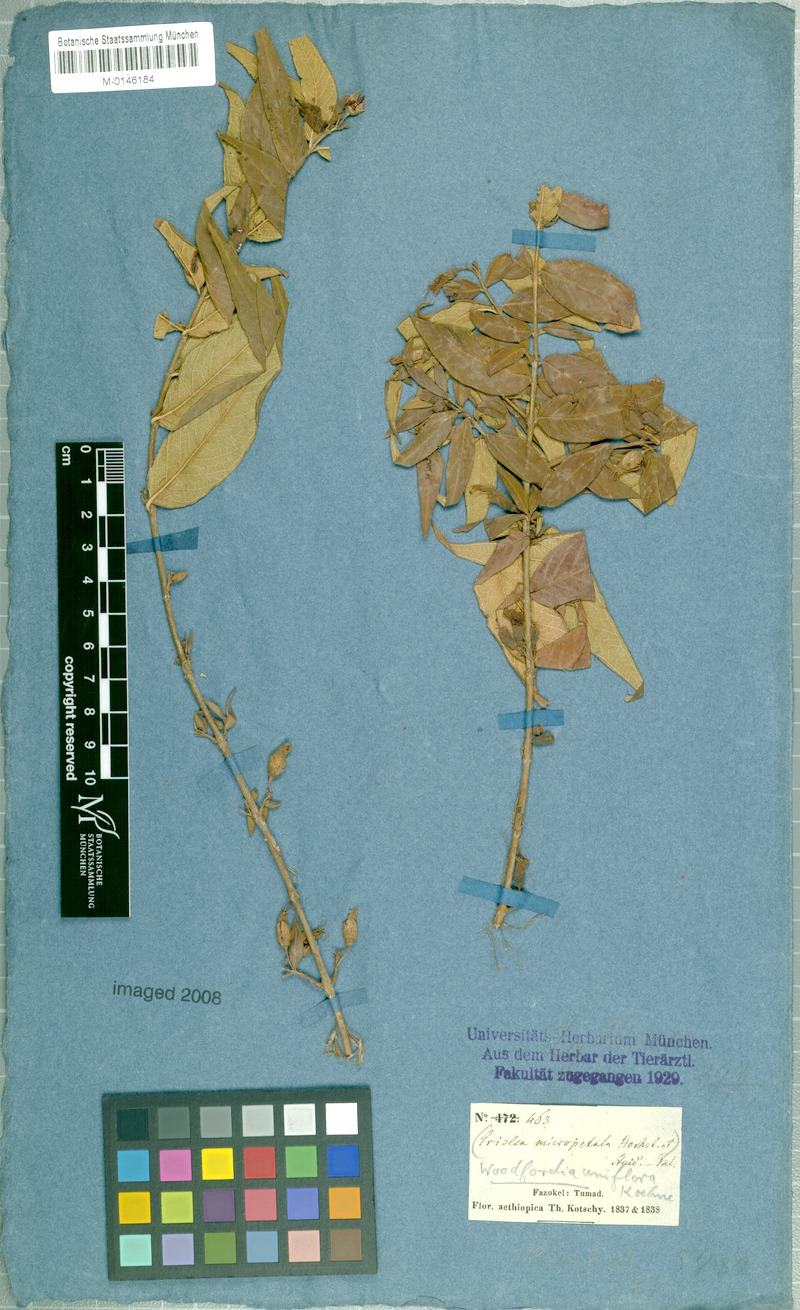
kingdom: Plantae
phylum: Tracheophyta
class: Magnoliopsida
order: Myrtales
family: Lythraceae
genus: Woodfordia
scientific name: Woodfordia uniflora
